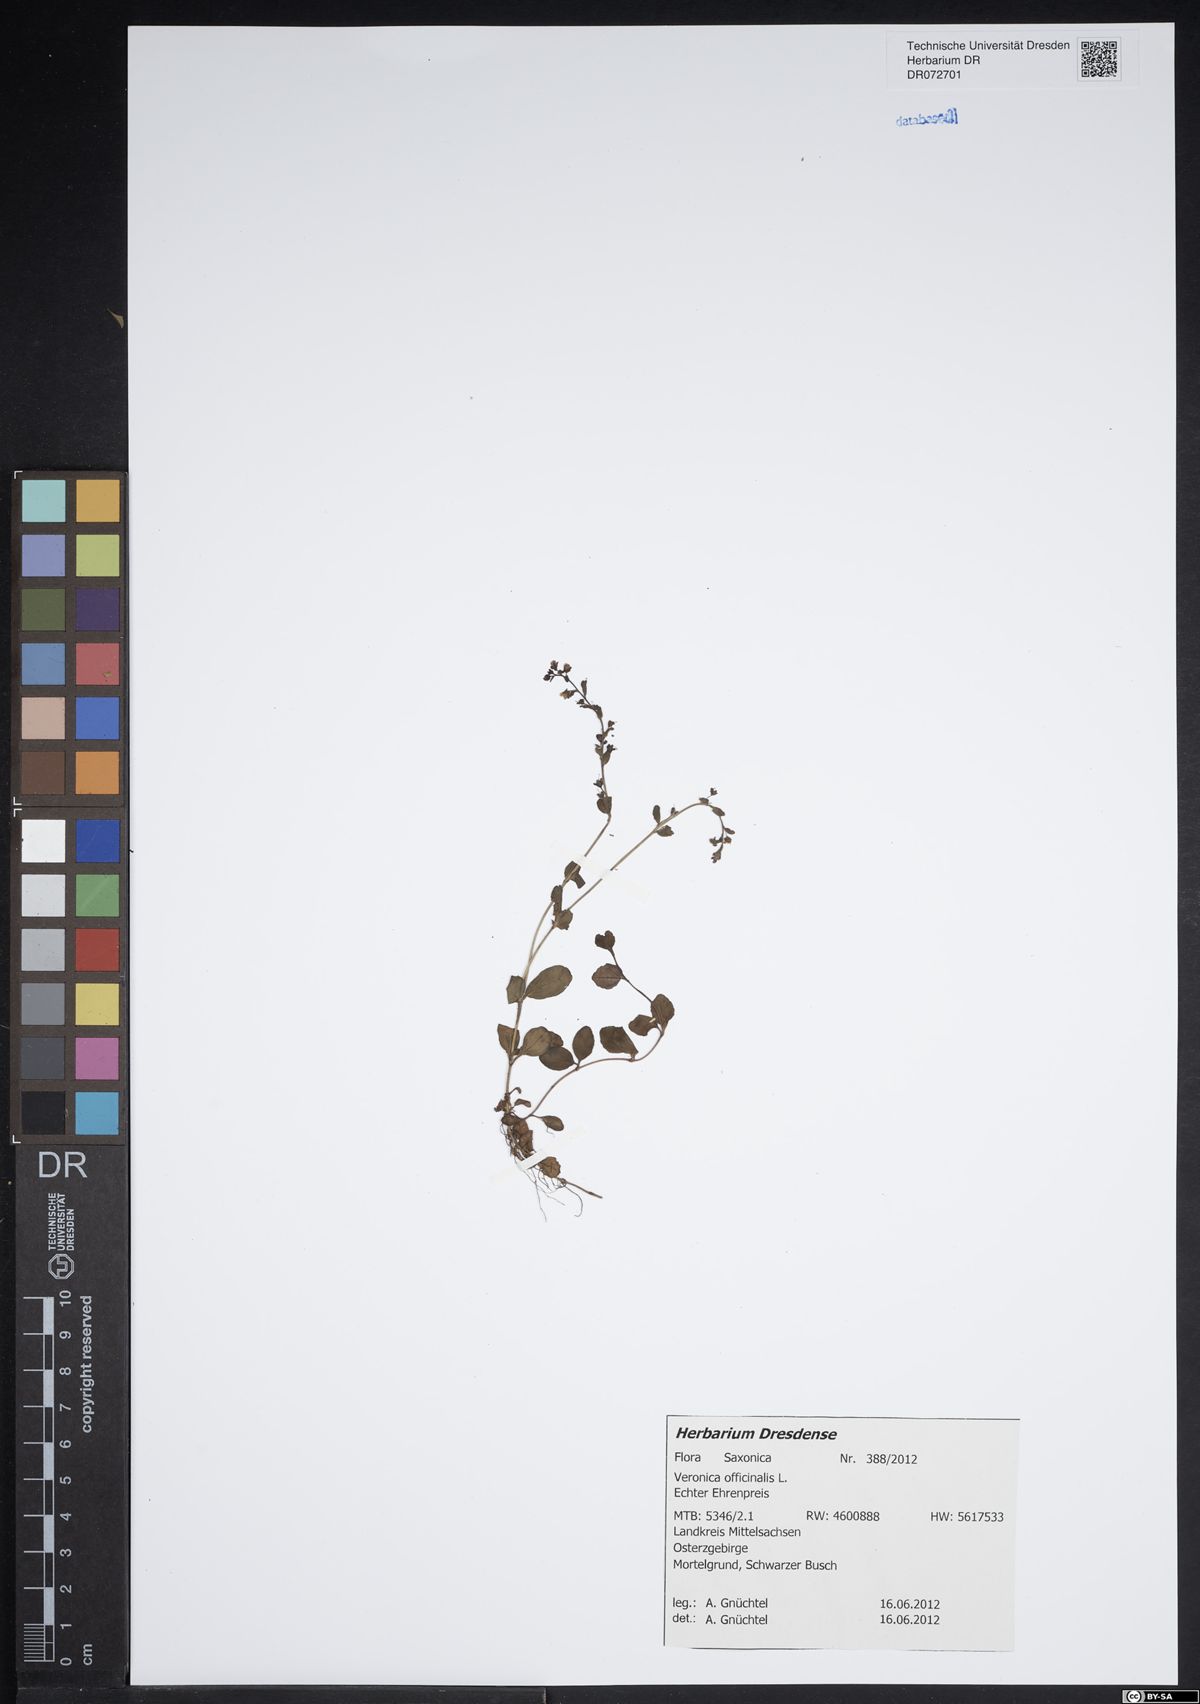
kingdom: Plantae
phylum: Tracheophyta
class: Magnoliopsida
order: Lamiales
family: Plantaginaceae
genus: Veronica
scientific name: Veronica officinalis
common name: Common speedwell
